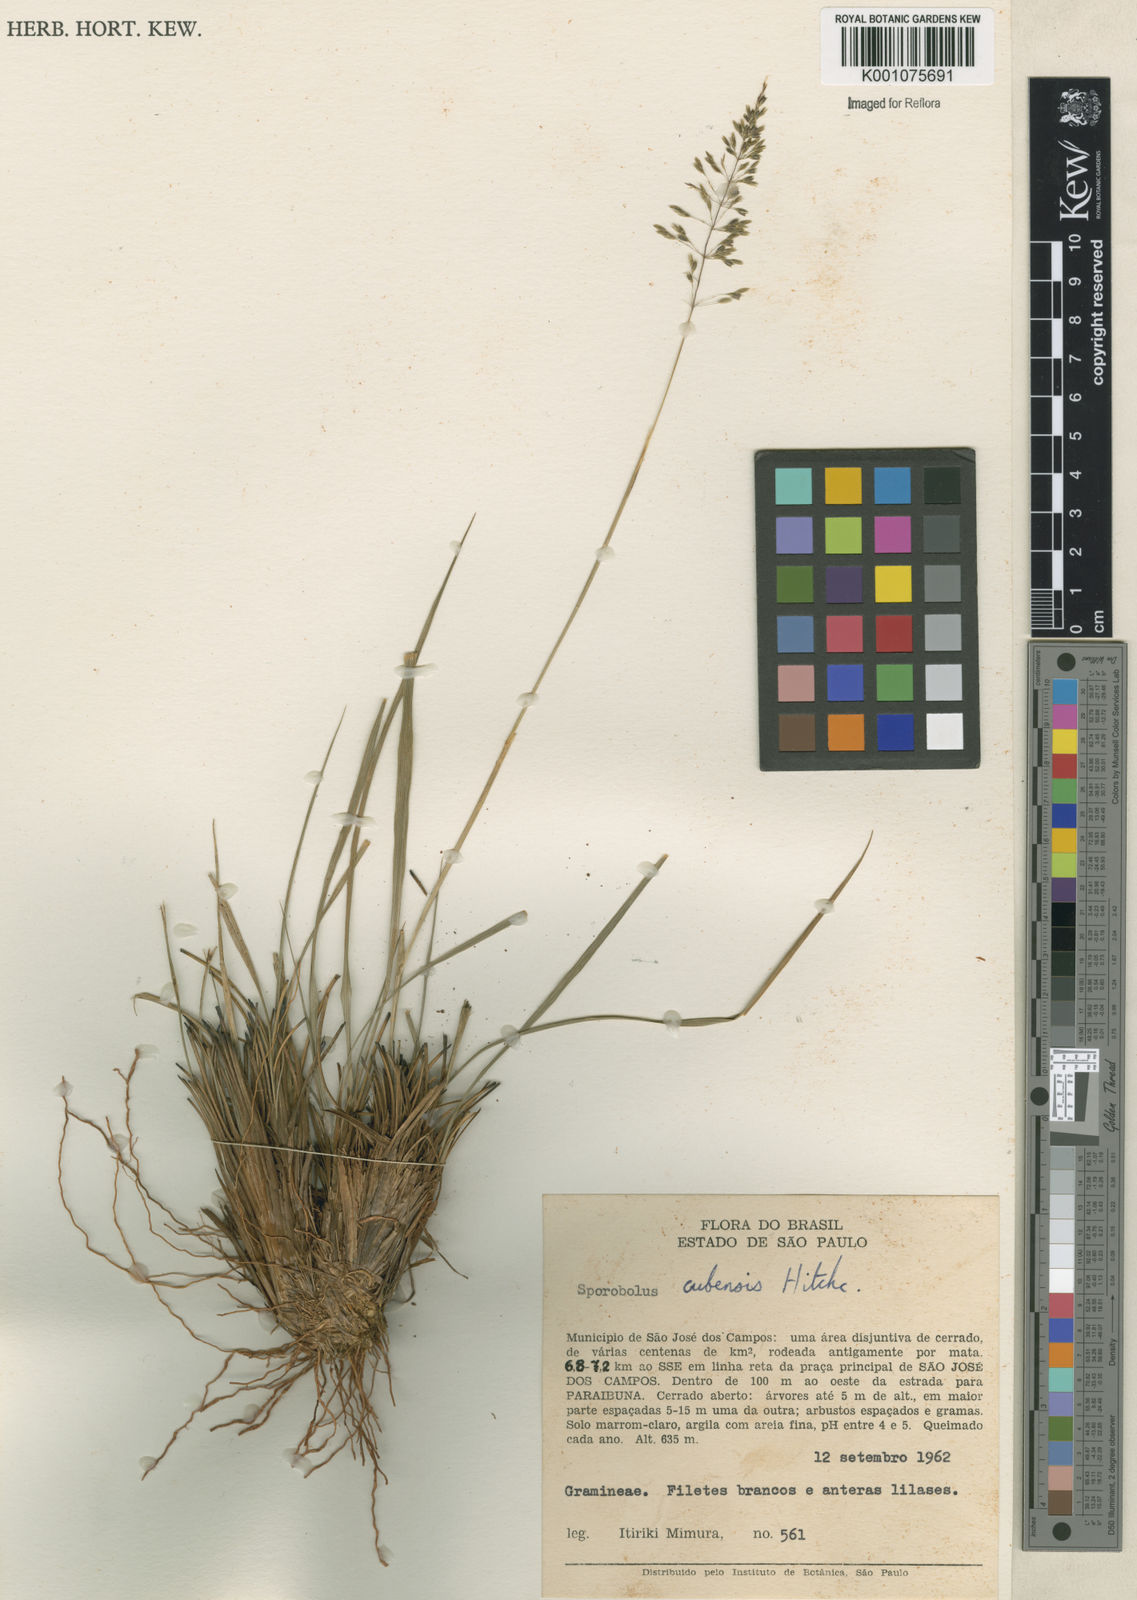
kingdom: Plantae
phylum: Tracheophyta
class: Liliopsida
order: Poales
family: Poaceae
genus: Sporobolus
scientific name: Sporobolus cubensis
